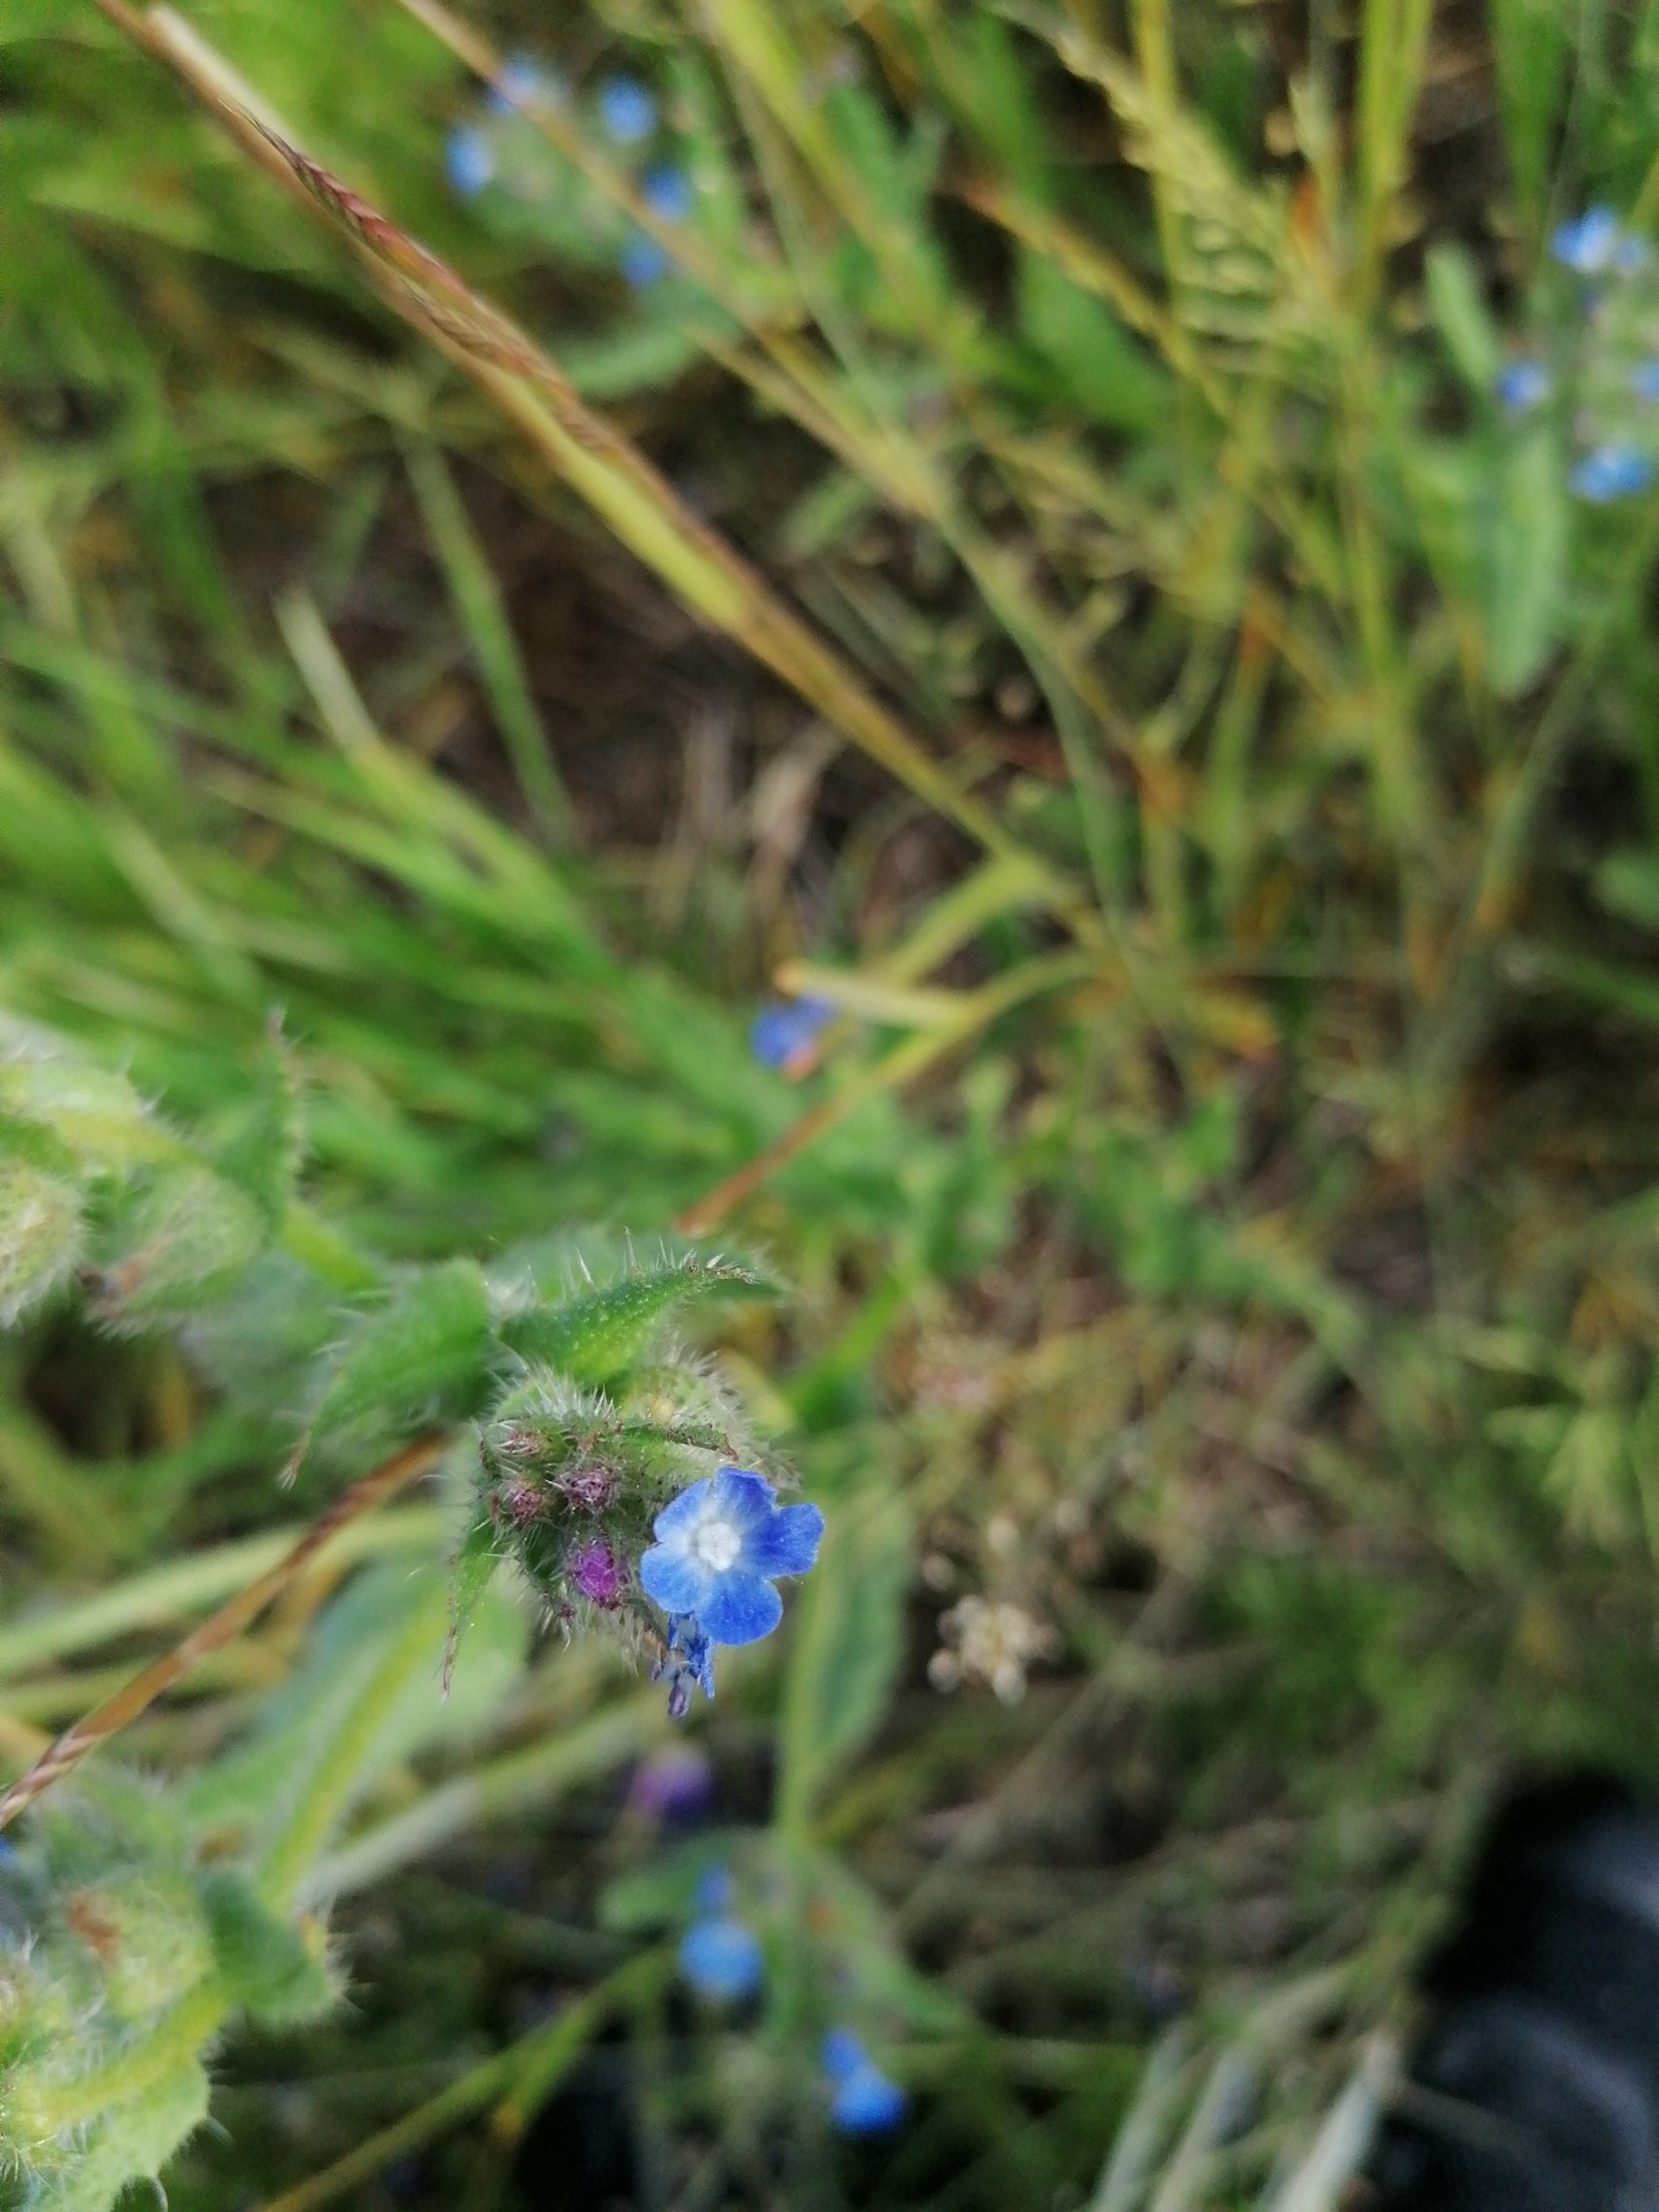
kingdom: Plantae
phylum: Tracheophyta
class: Magnoliopsida
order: Boraginales
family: Boraginaceae
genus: Lycopsis
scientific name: Lycopsis arvensis
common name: Krumhals
